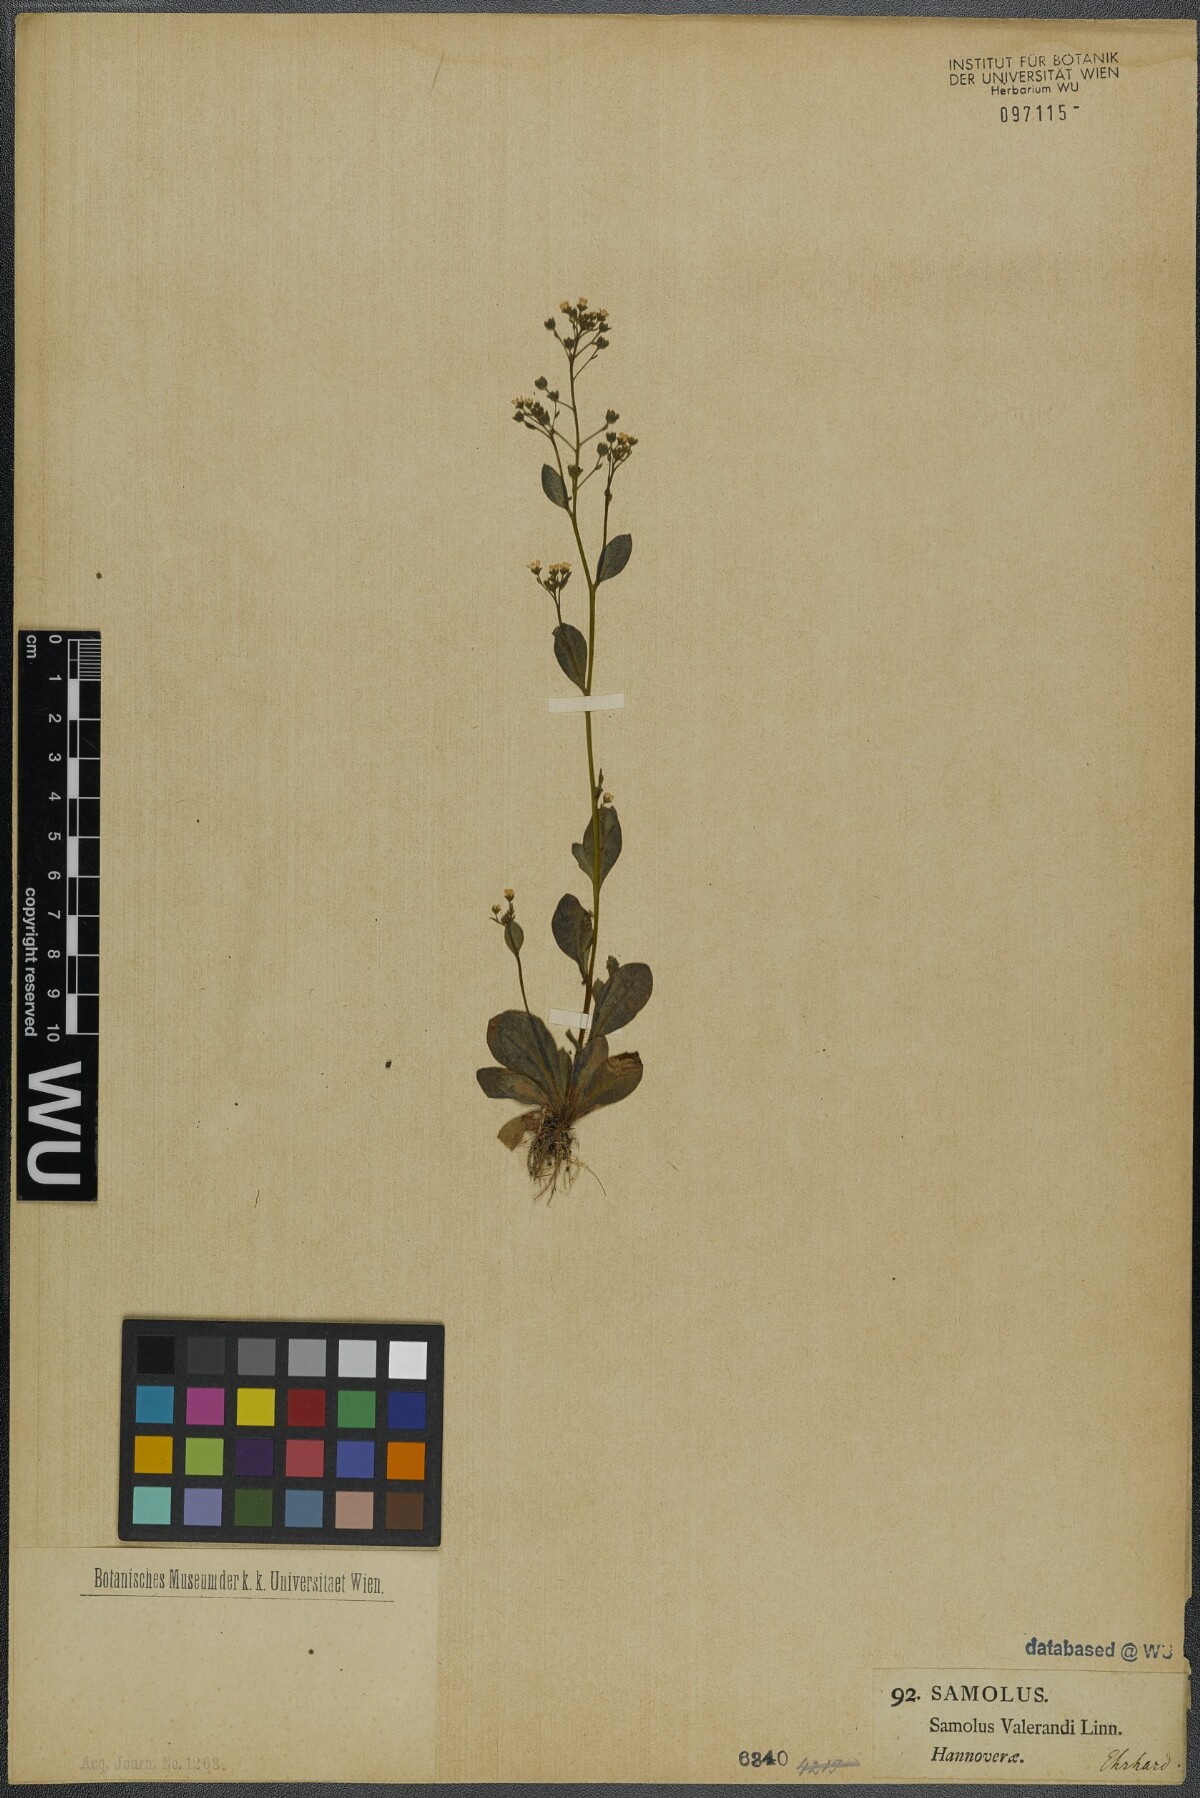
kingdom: Plantae
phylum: Tracheophyta
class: Magnoliopsida
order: Ericales
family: Primulaceae
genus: Samolus
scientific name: Samolus valerandi
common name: Brookweed
